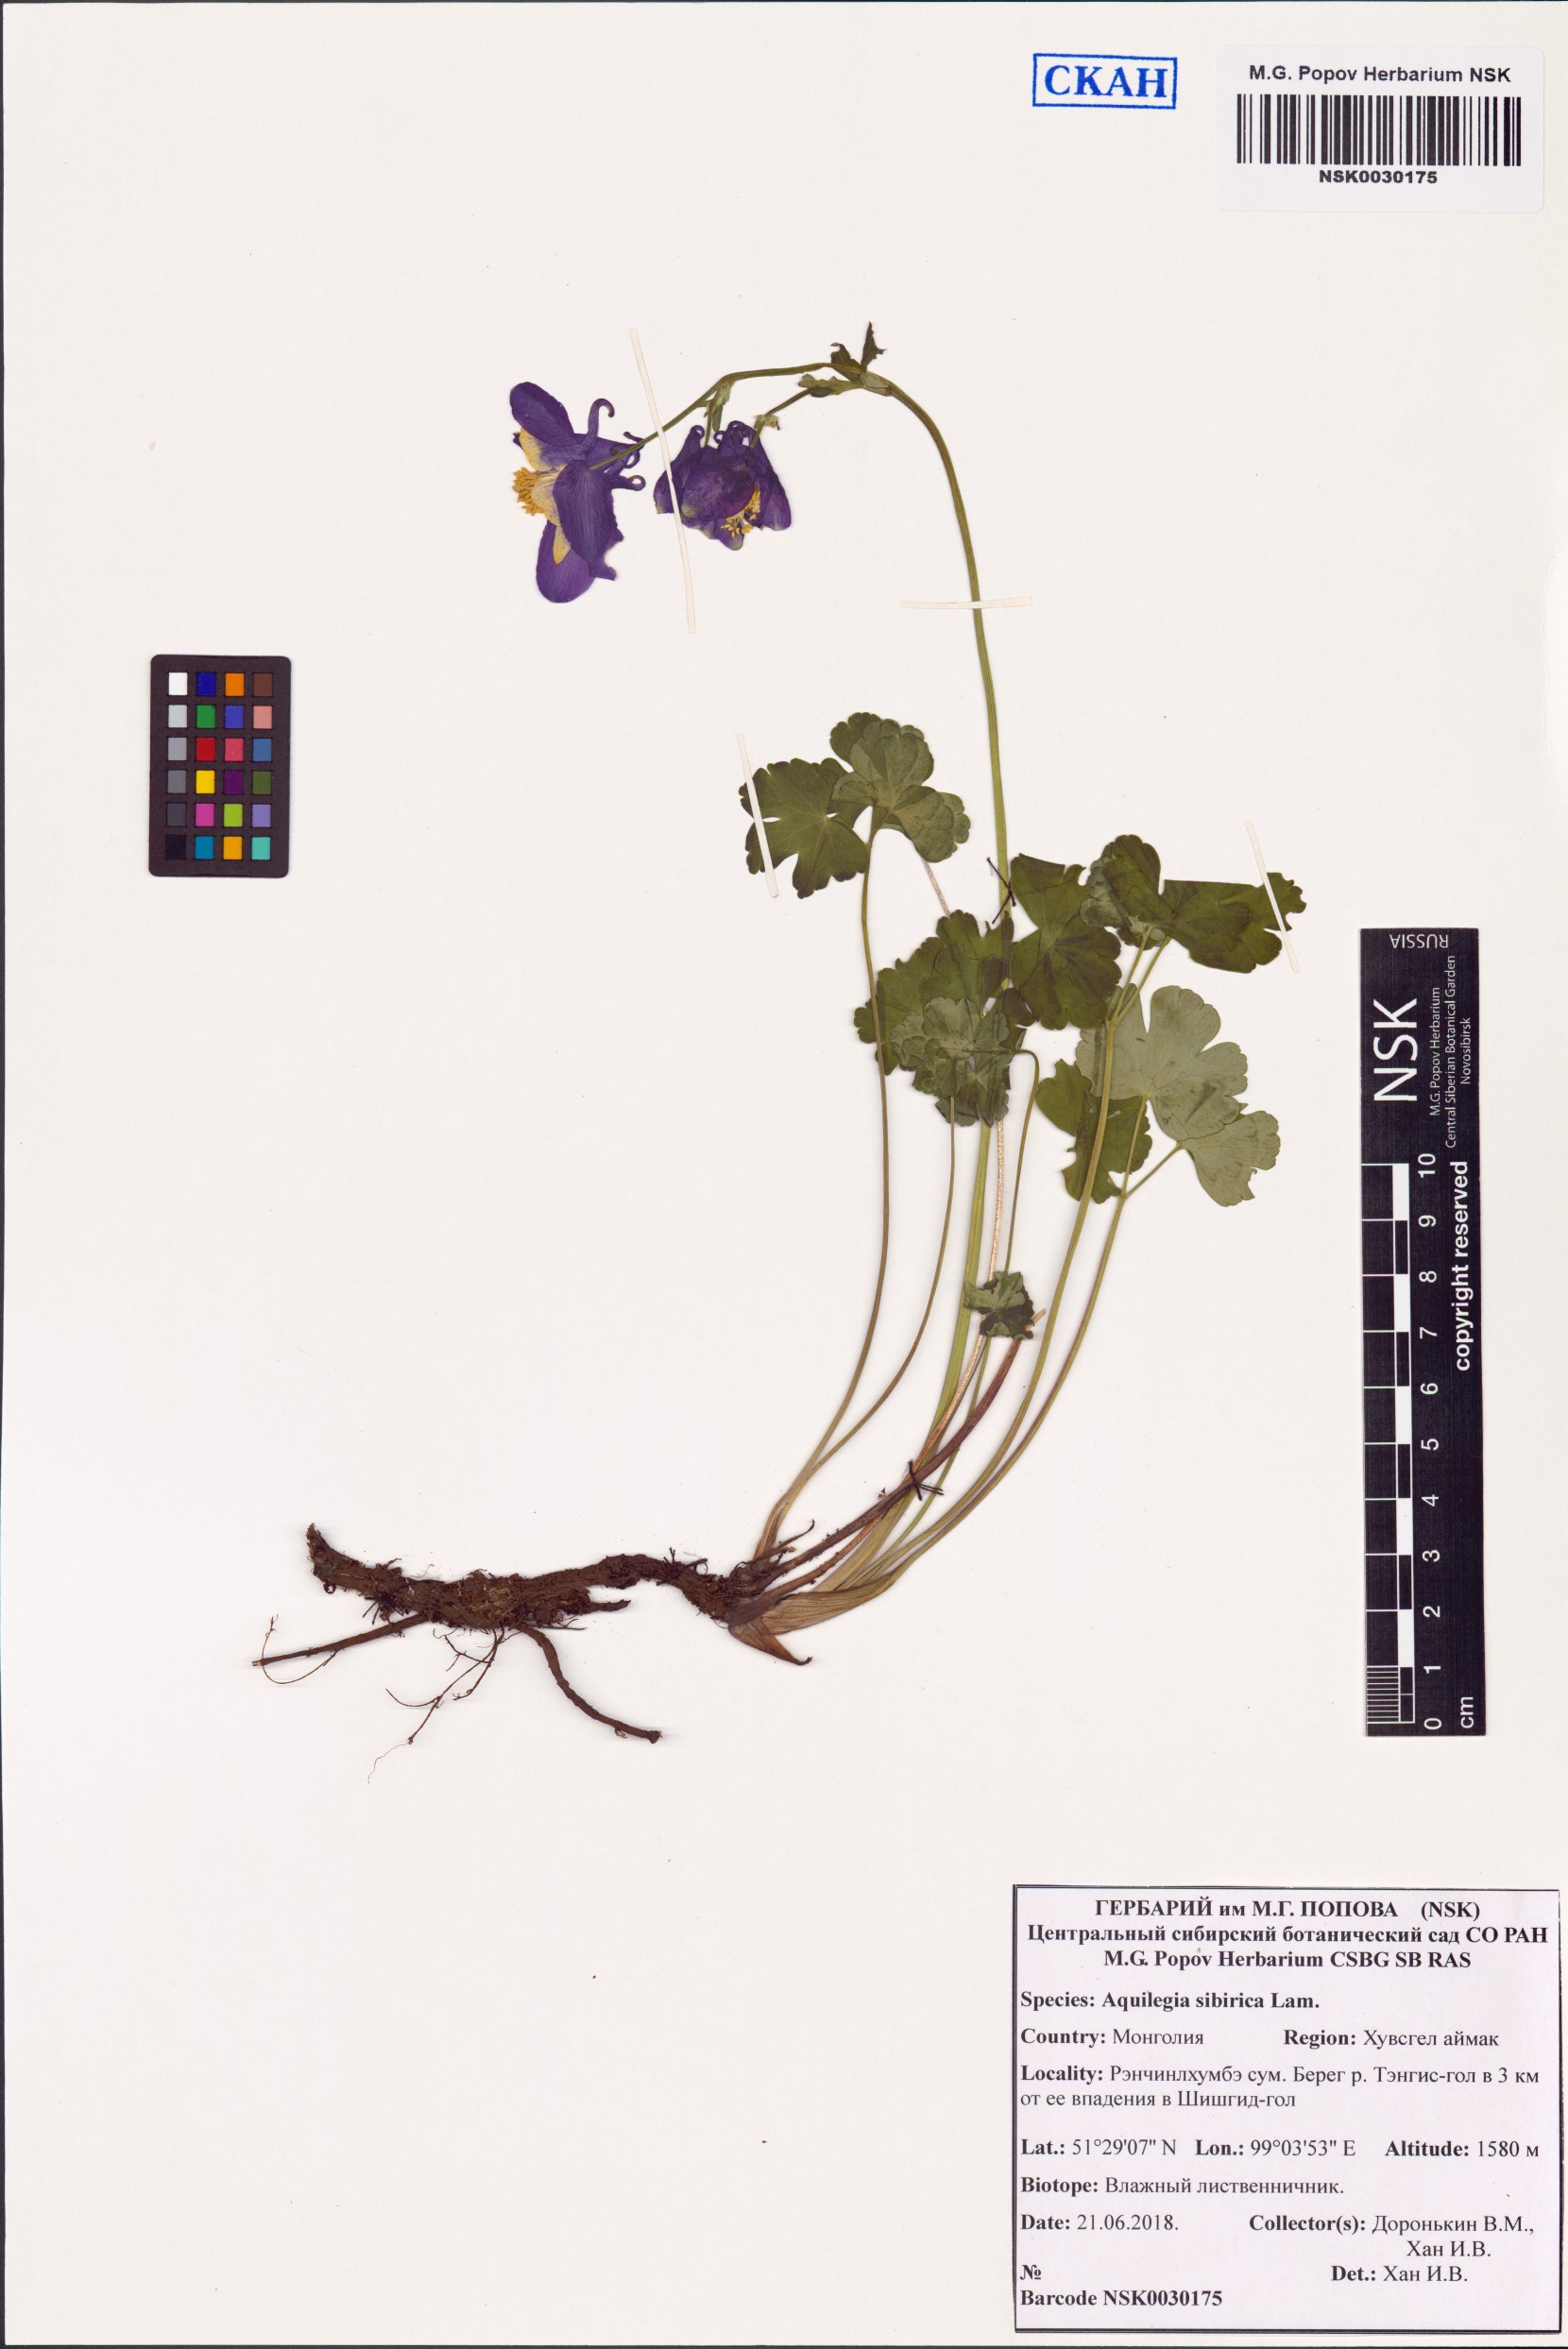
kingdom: Plantae
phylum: Tracheophyta
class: Magnoliopsida
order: Ranunculales
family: Ranunculaceae
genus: Aquilegia
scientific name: Aquilegia sibirica
